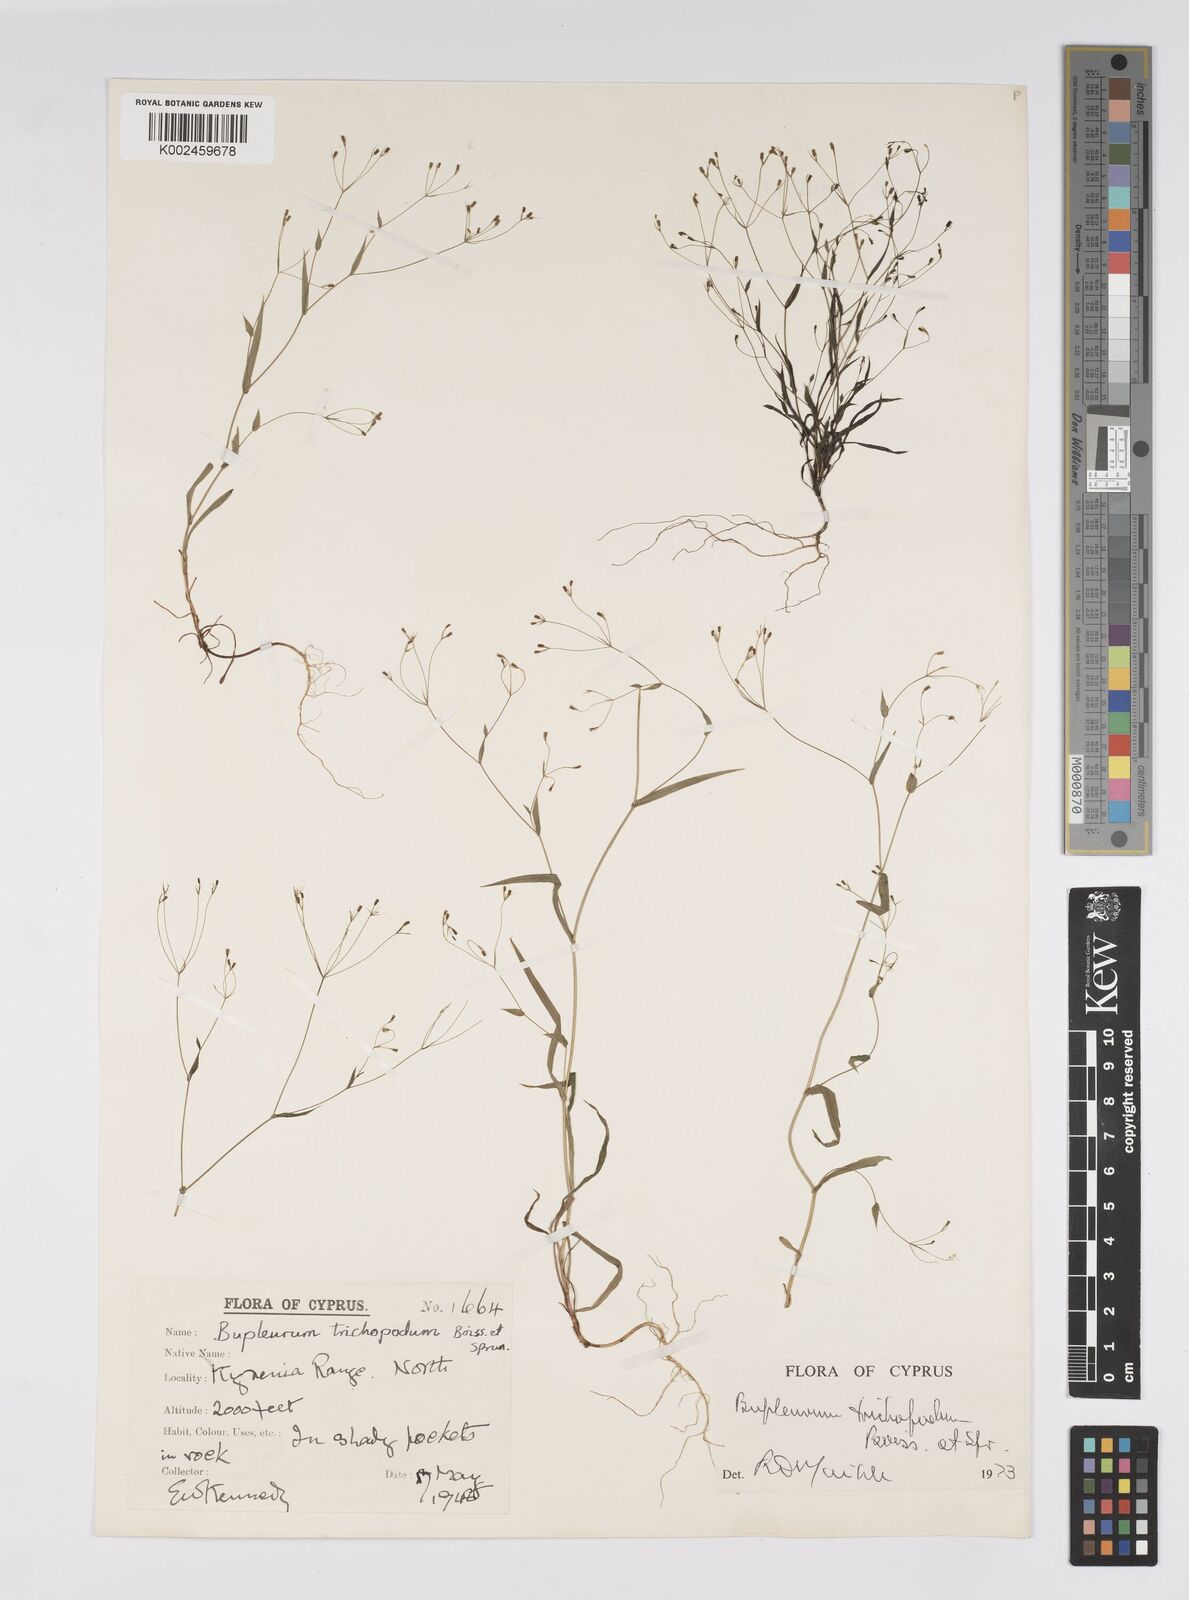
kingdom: Plantae
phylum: Tracheophyta
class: Magnoliopsida
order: Apiales
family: Apiaceae
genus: Bupleurum
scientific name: Bupleurum trichopodum
